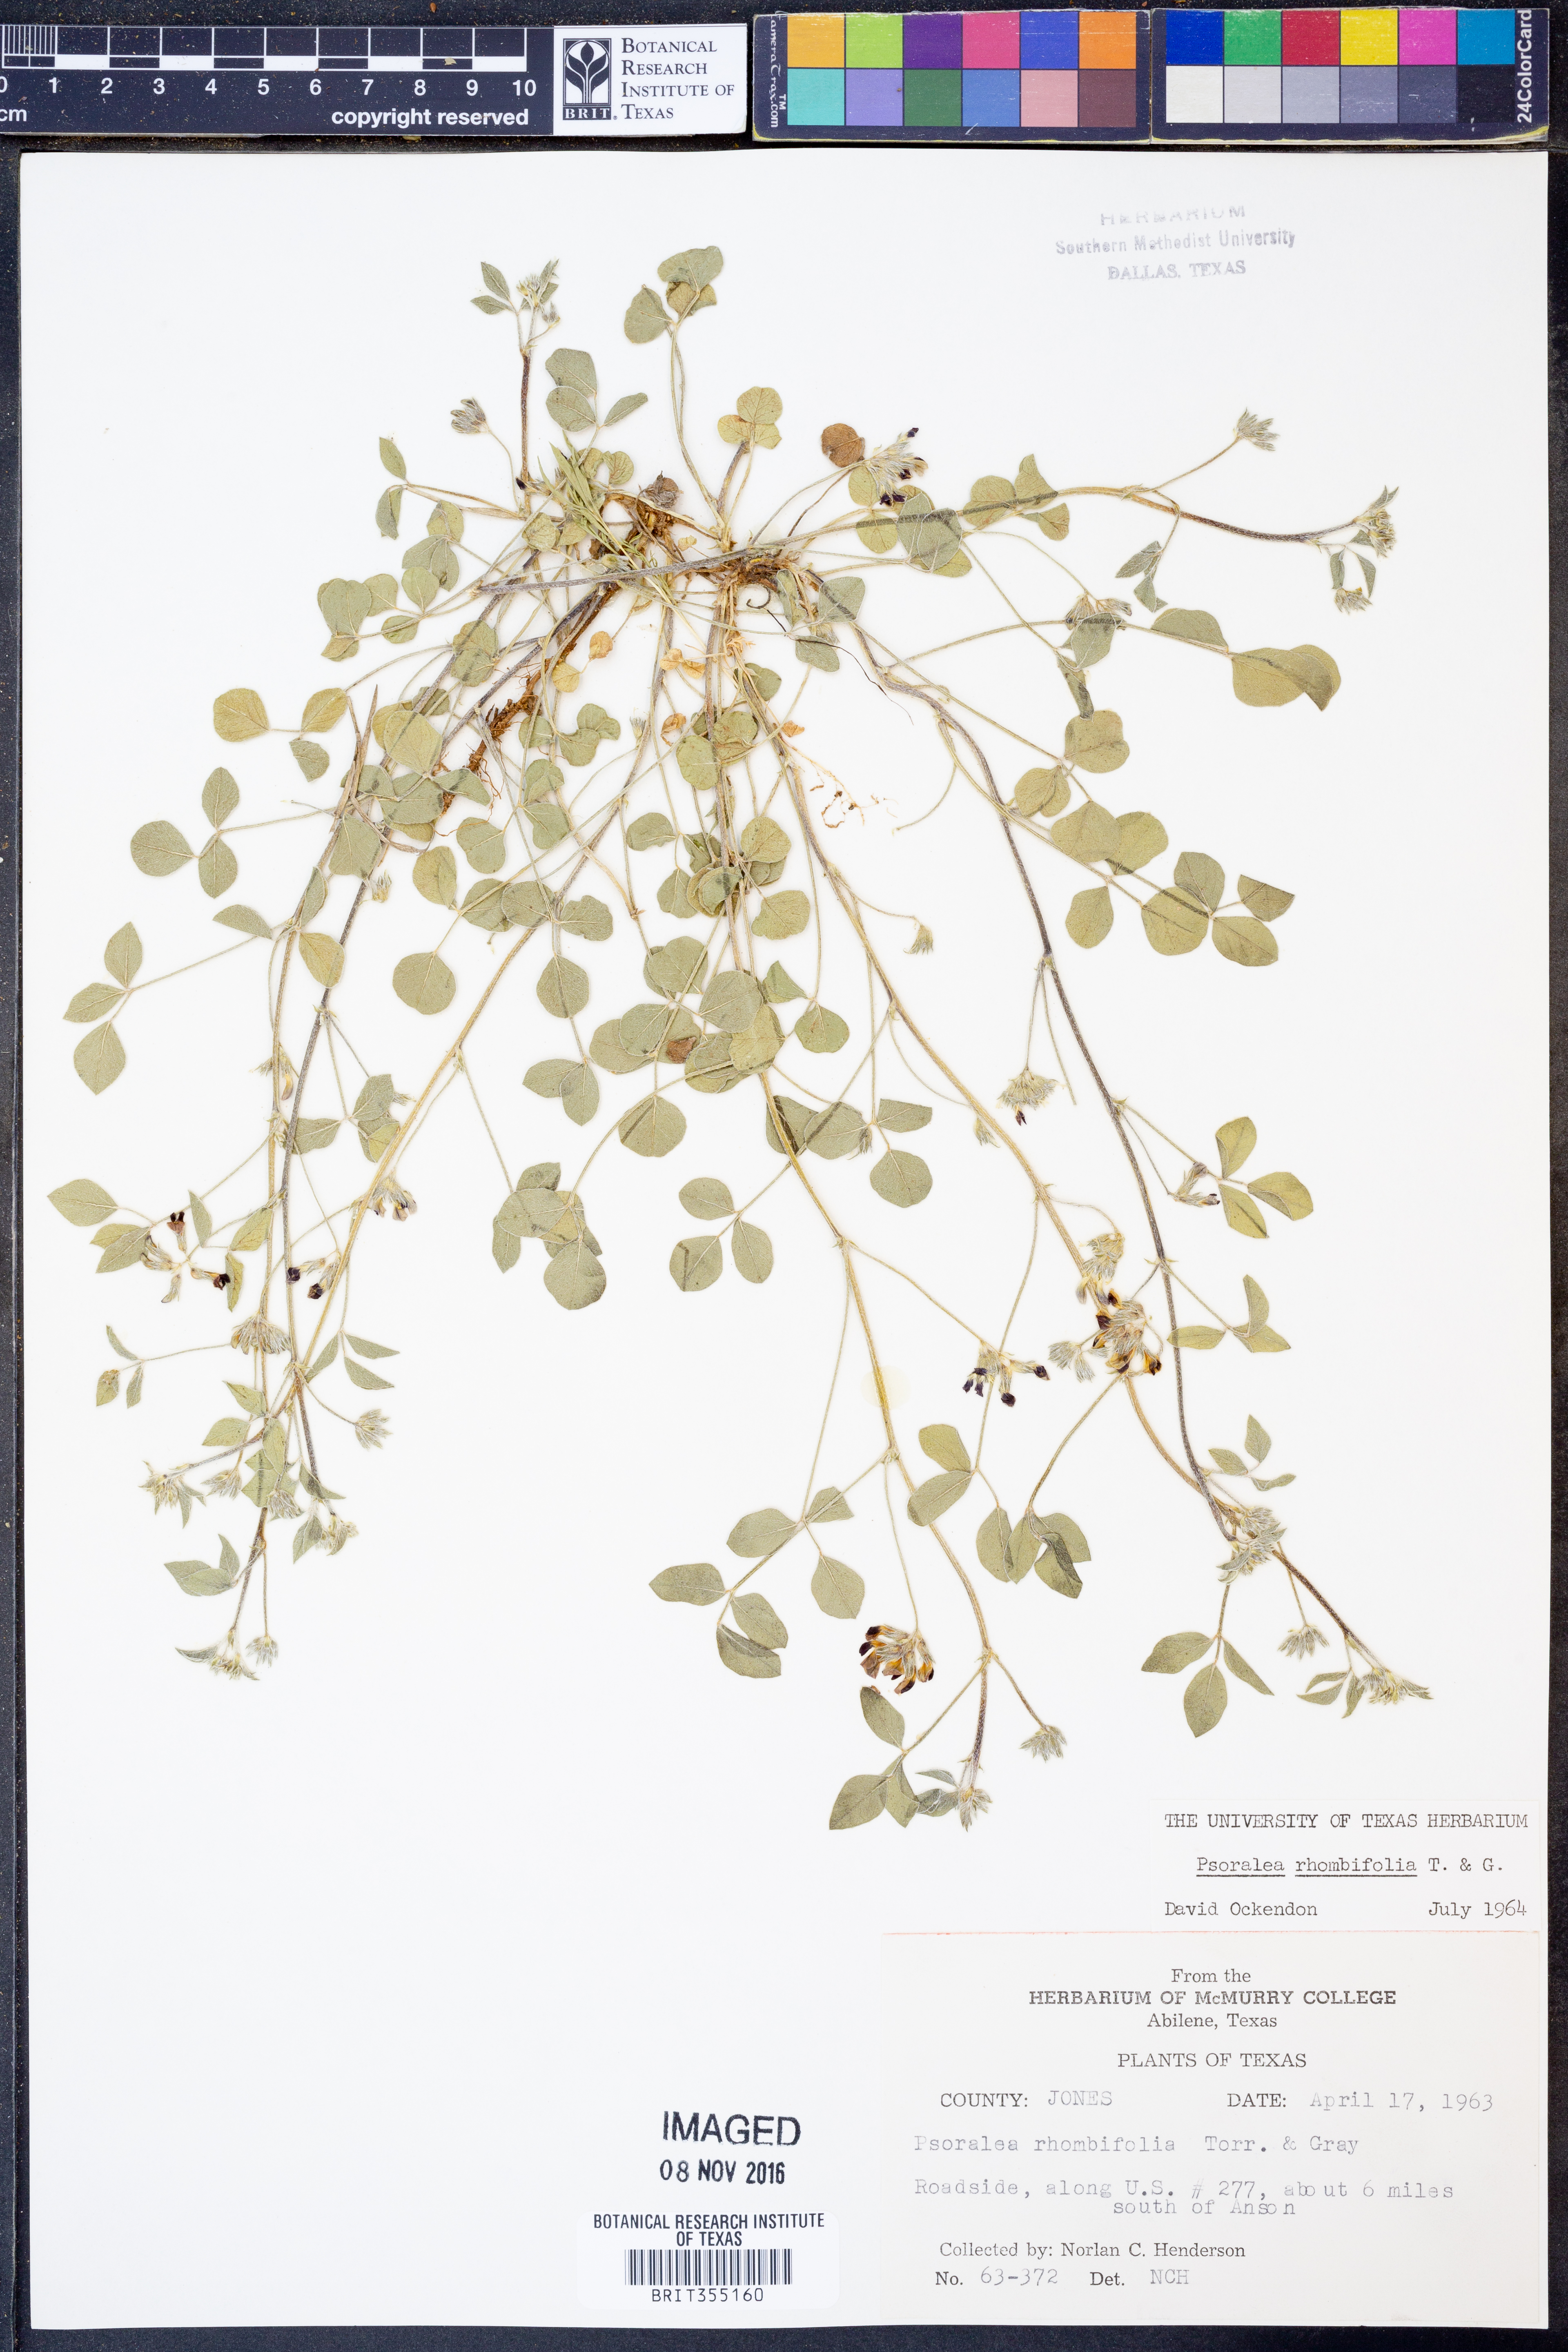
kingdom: Plantae
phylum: Tracheophyta
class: Magnoliopsida
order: Fabales
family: Fabaceae
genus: Pediomelum
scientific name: Pediomelum rhombifolium
